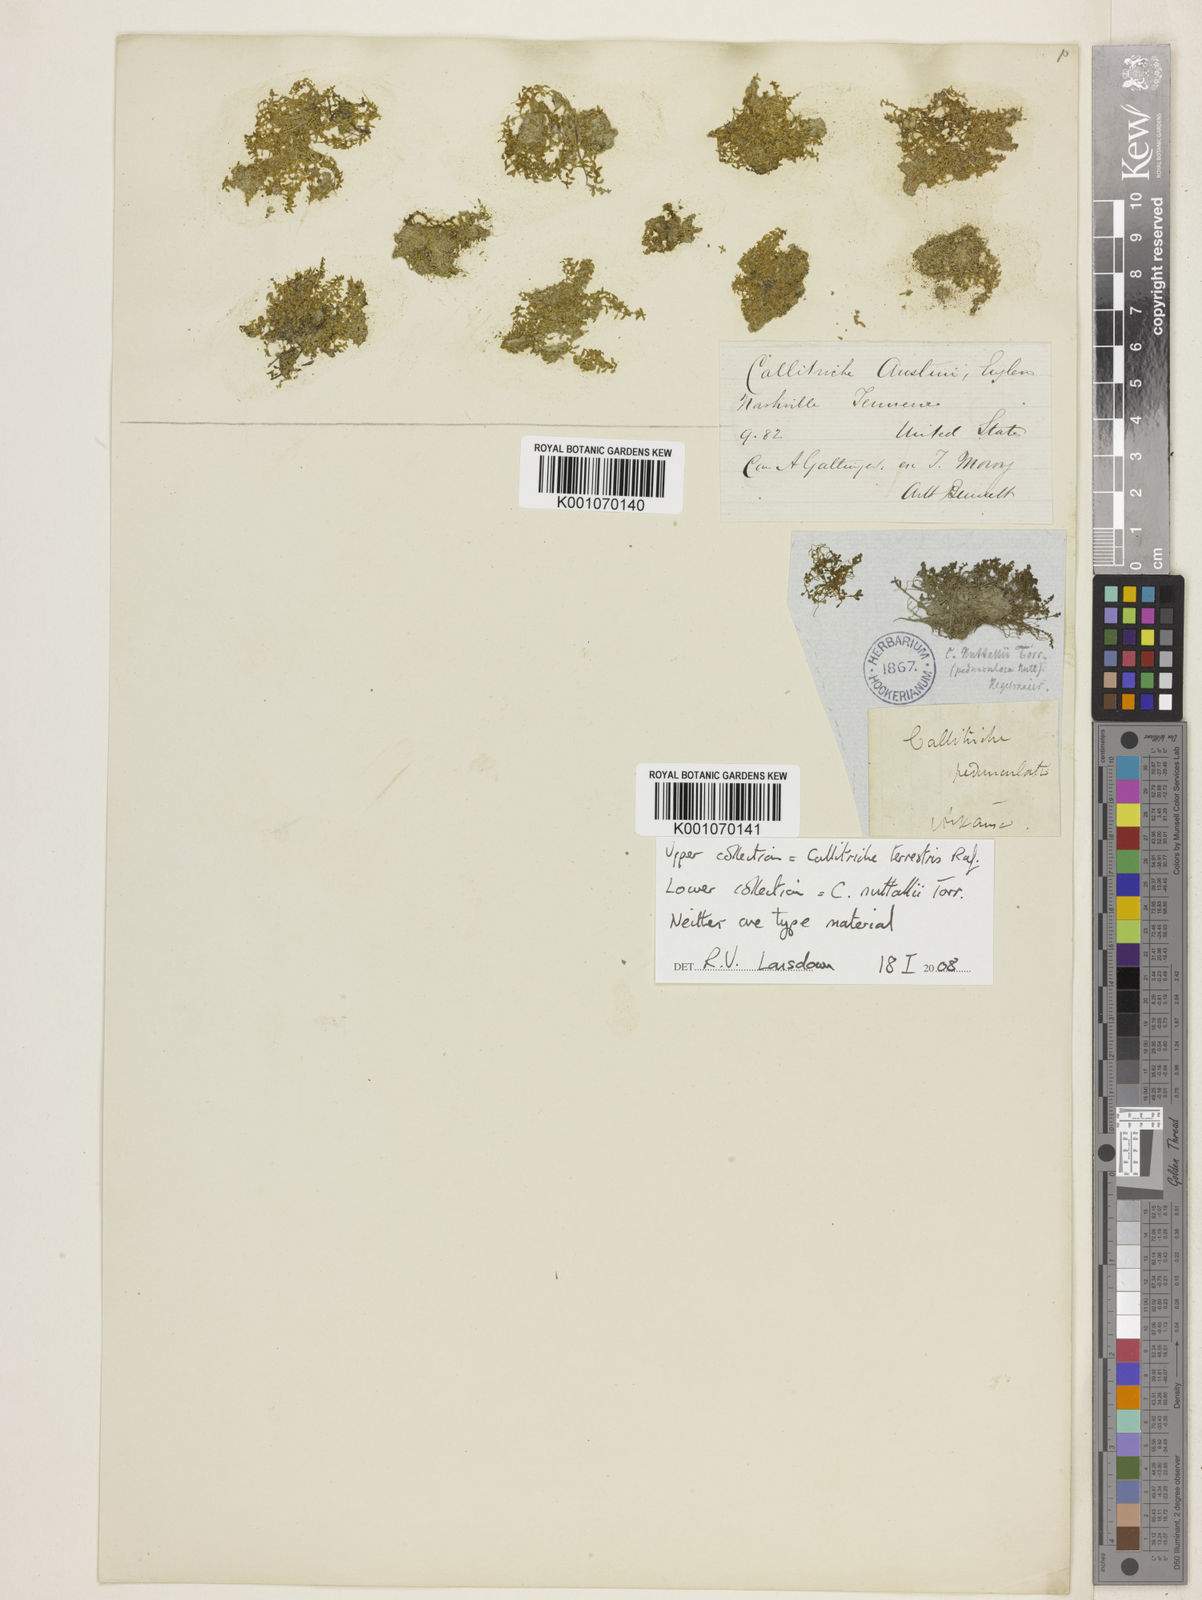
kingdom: Plantae
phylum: Tracheophyta
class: Magnoliopsida
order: Lamiales
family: Plantaginaceae
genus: Callitriche
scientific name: Callitriche pedunculosa
